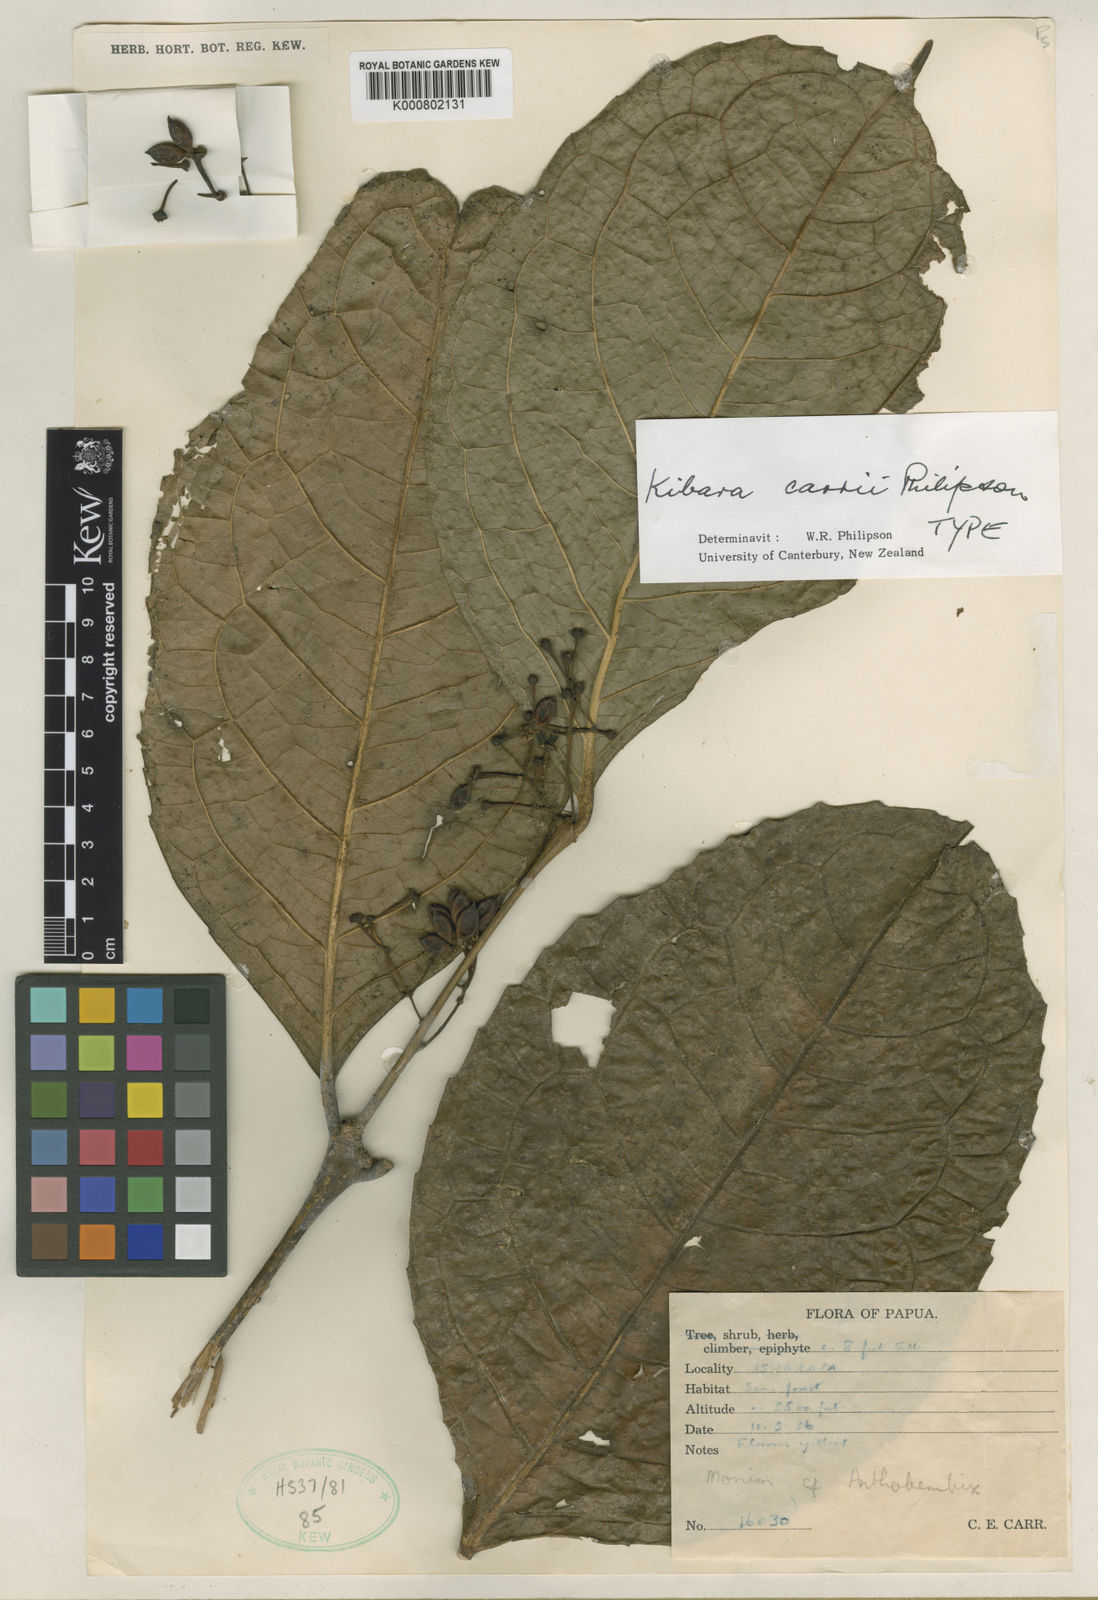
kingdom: Plantae
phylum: Tracheophyta
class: Magnoliopsida
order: Laurales
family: Monimiaceae
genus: Kibara
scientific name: Kibara carrii
